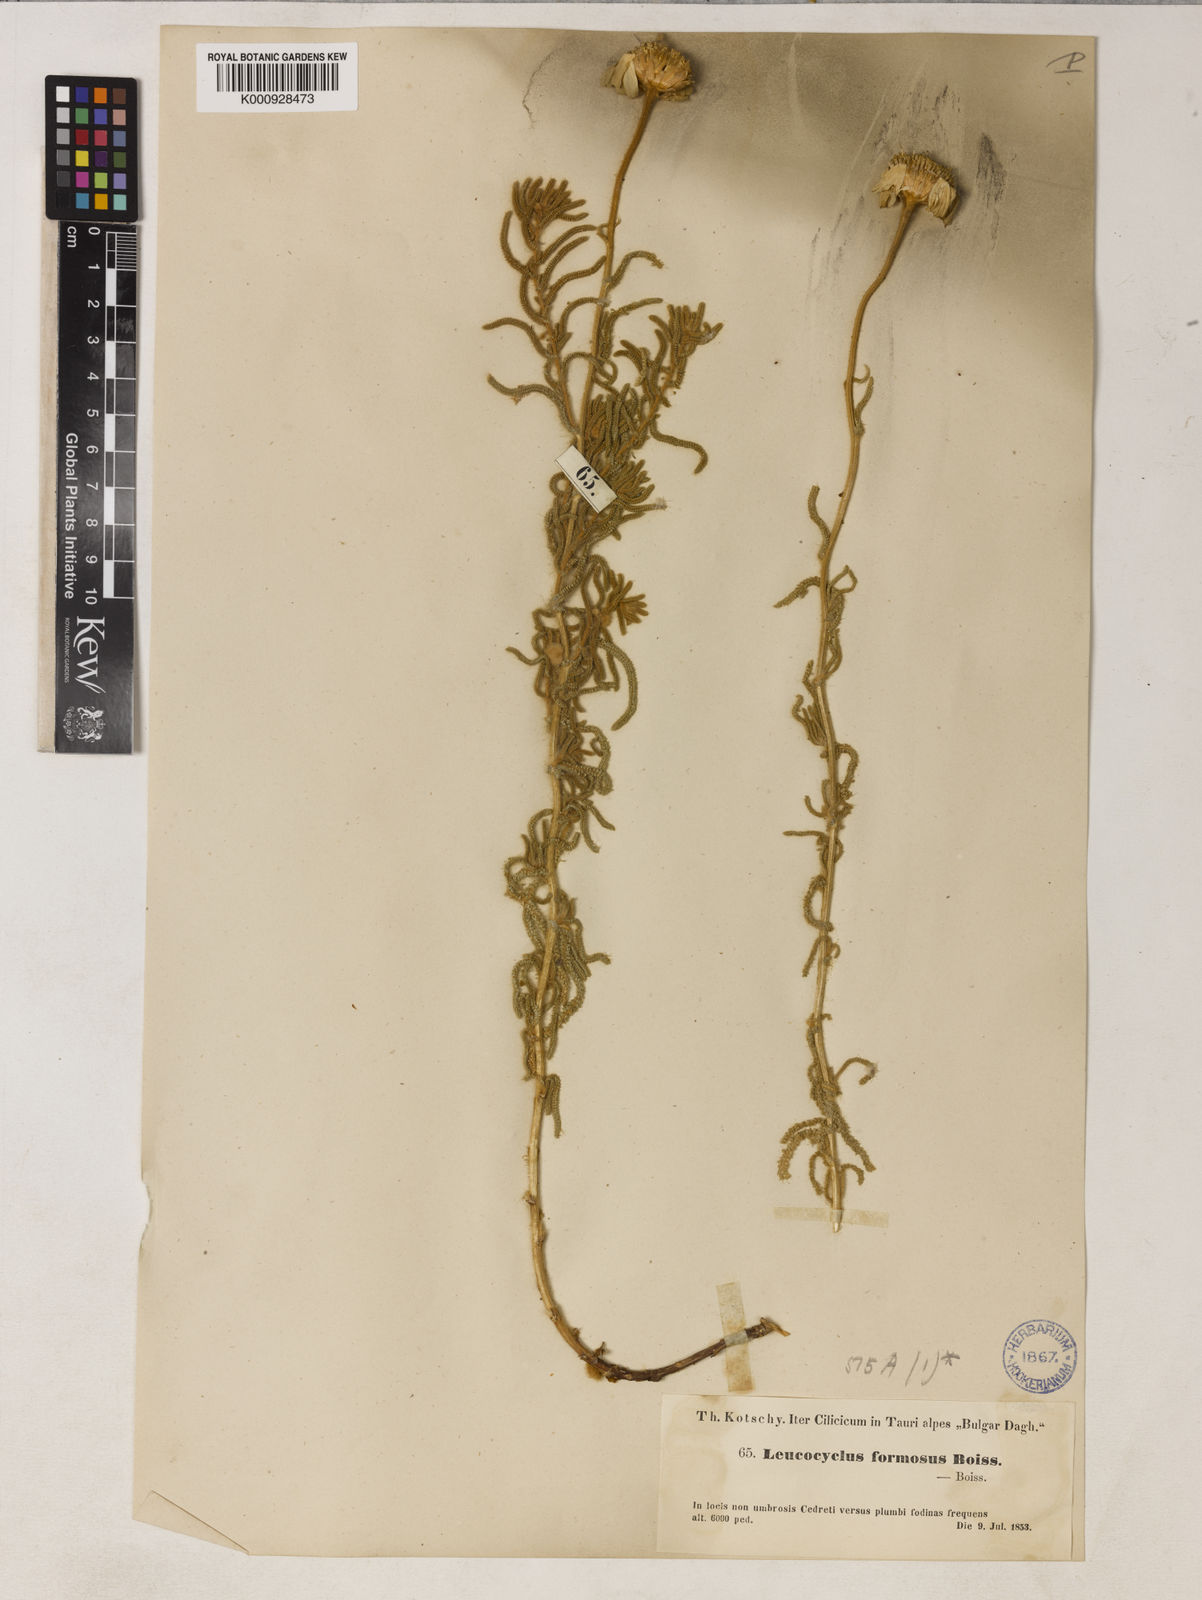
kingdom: Plantae
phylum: Tracheophyta
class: Magnoliopsida
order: Asterales
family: Asteraceae
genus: Achillea
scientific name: Achillea formosa
